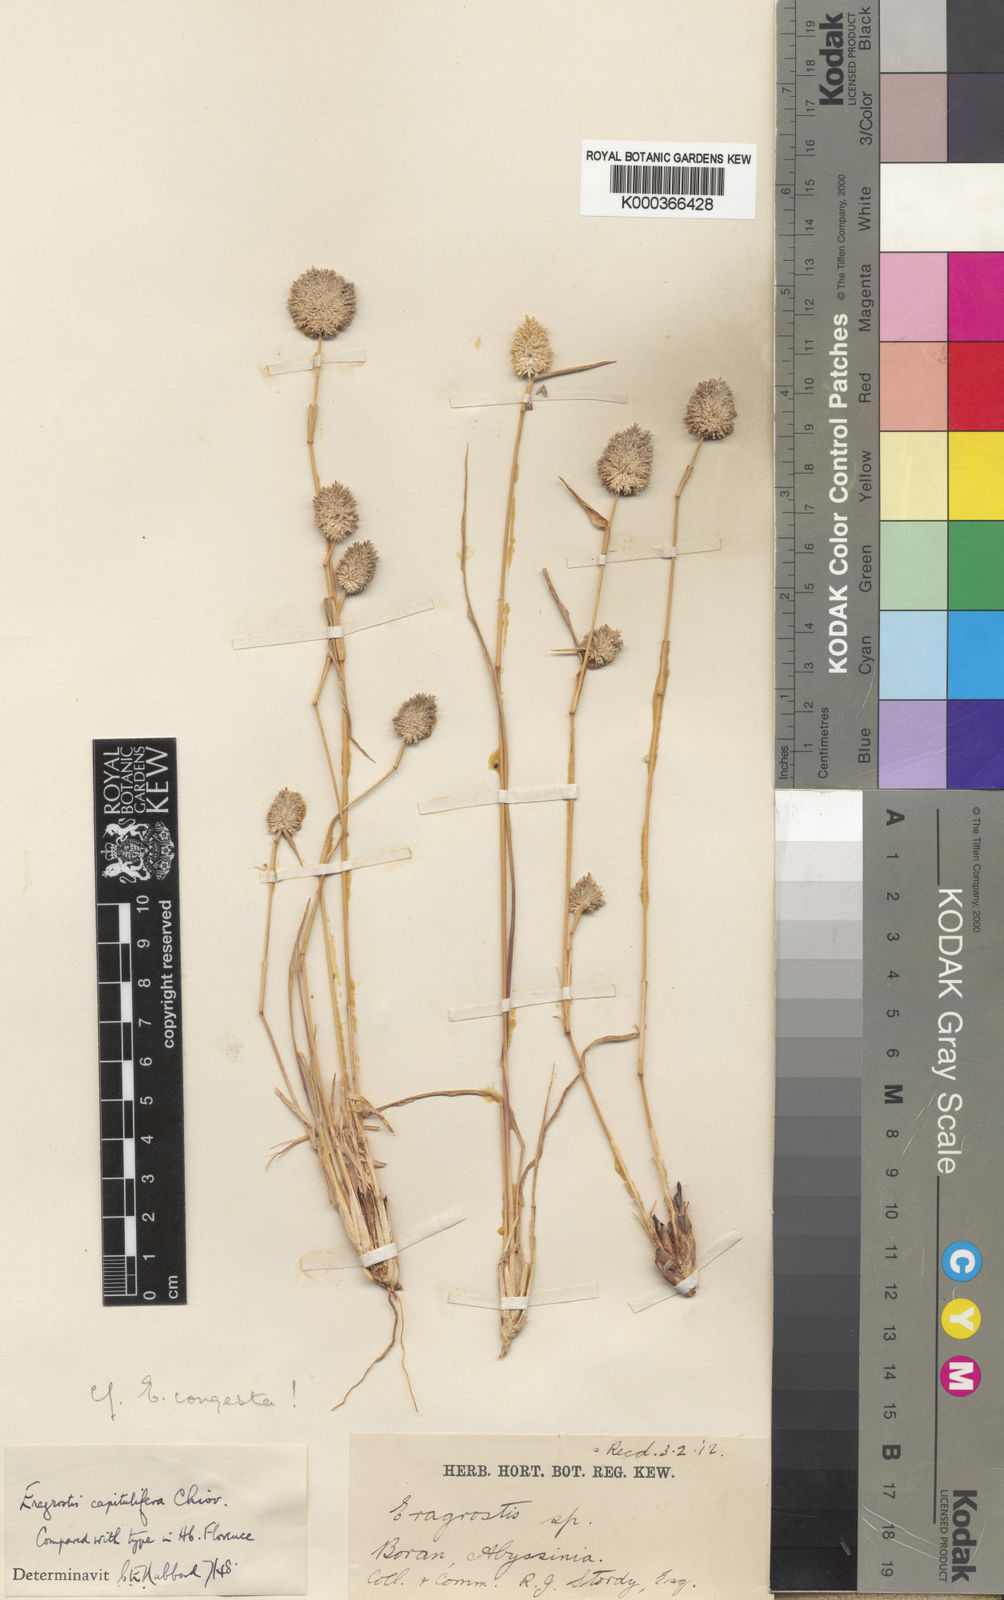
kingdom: Plantae
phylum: Tracheophyta
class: Liliopsida
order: Poales
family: Poaceae
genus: Eragrostis
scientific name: Eragrostis capitulifera
